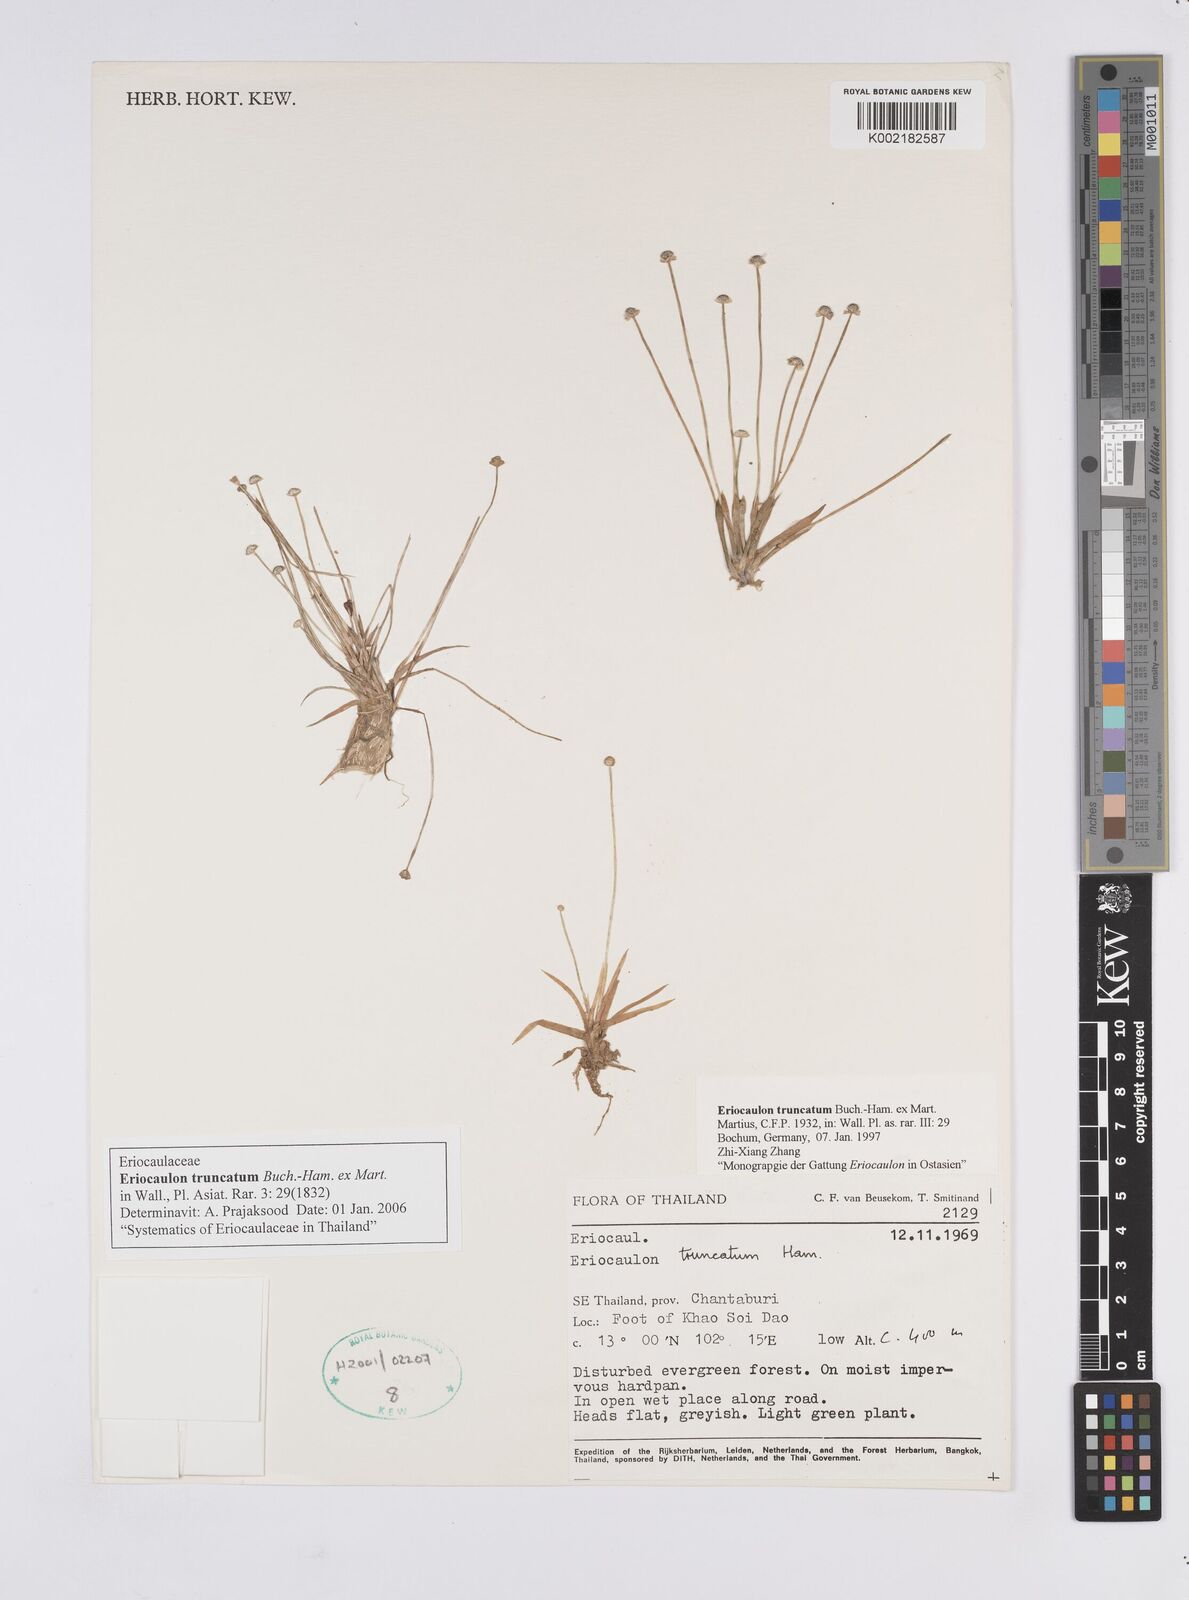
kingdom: Plantae
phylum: Tracheophyta
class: Liliopsida
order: Poales
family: Eriocaulaceae
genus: Eriocaulon
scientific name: Eriocaulon truncatum
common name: Short pipe-wort
